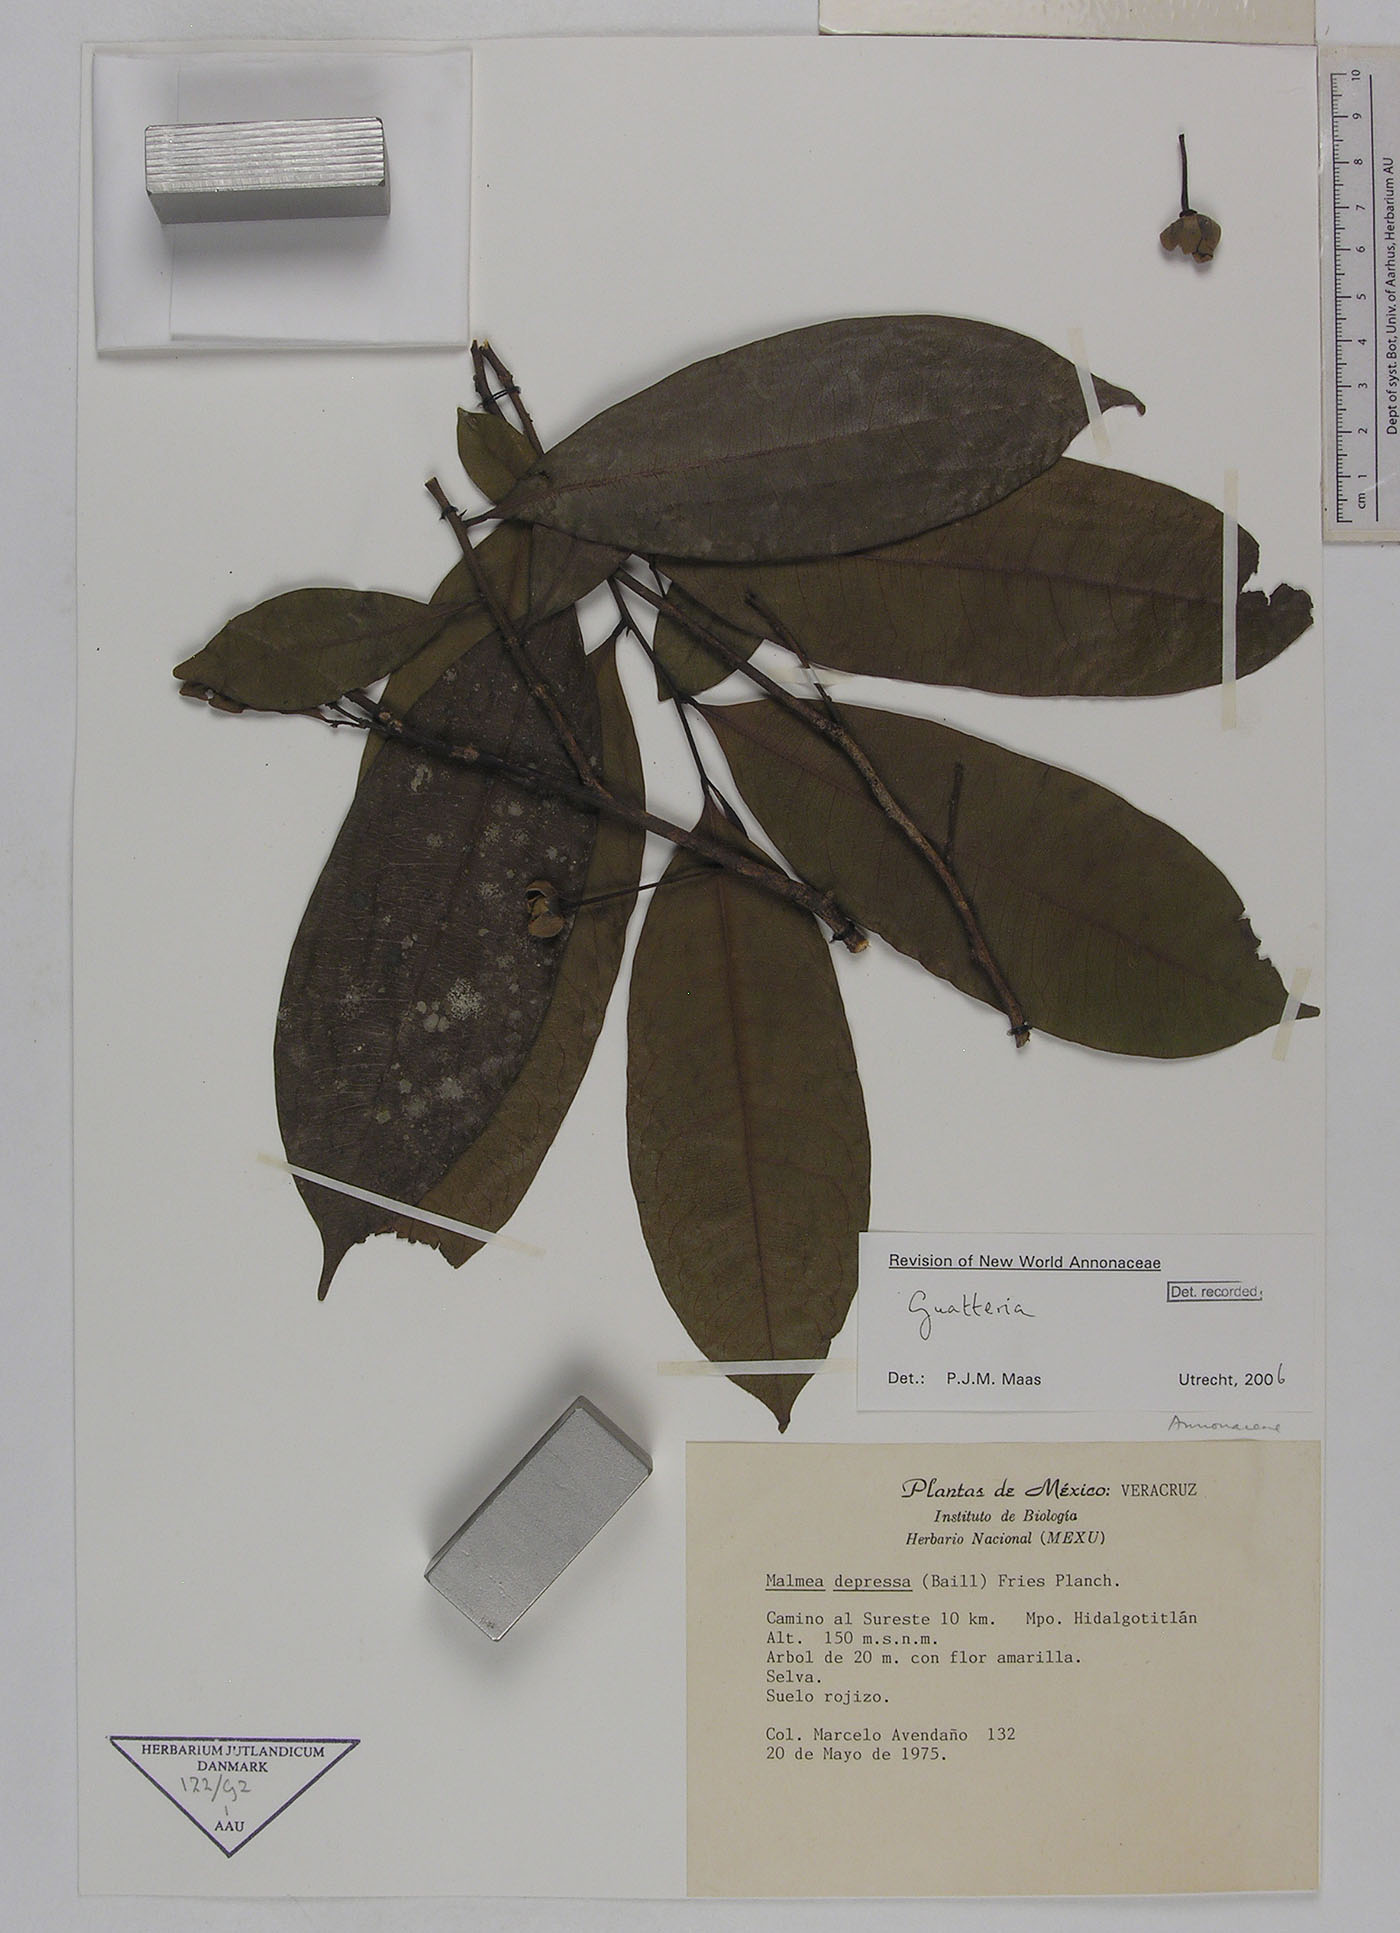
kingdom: Plantae
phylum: Tracheophyta
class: Magnoliopsida
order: Magnoliales
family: Annonaceae
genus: Guatteria
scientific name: Guatteria galeottiana
